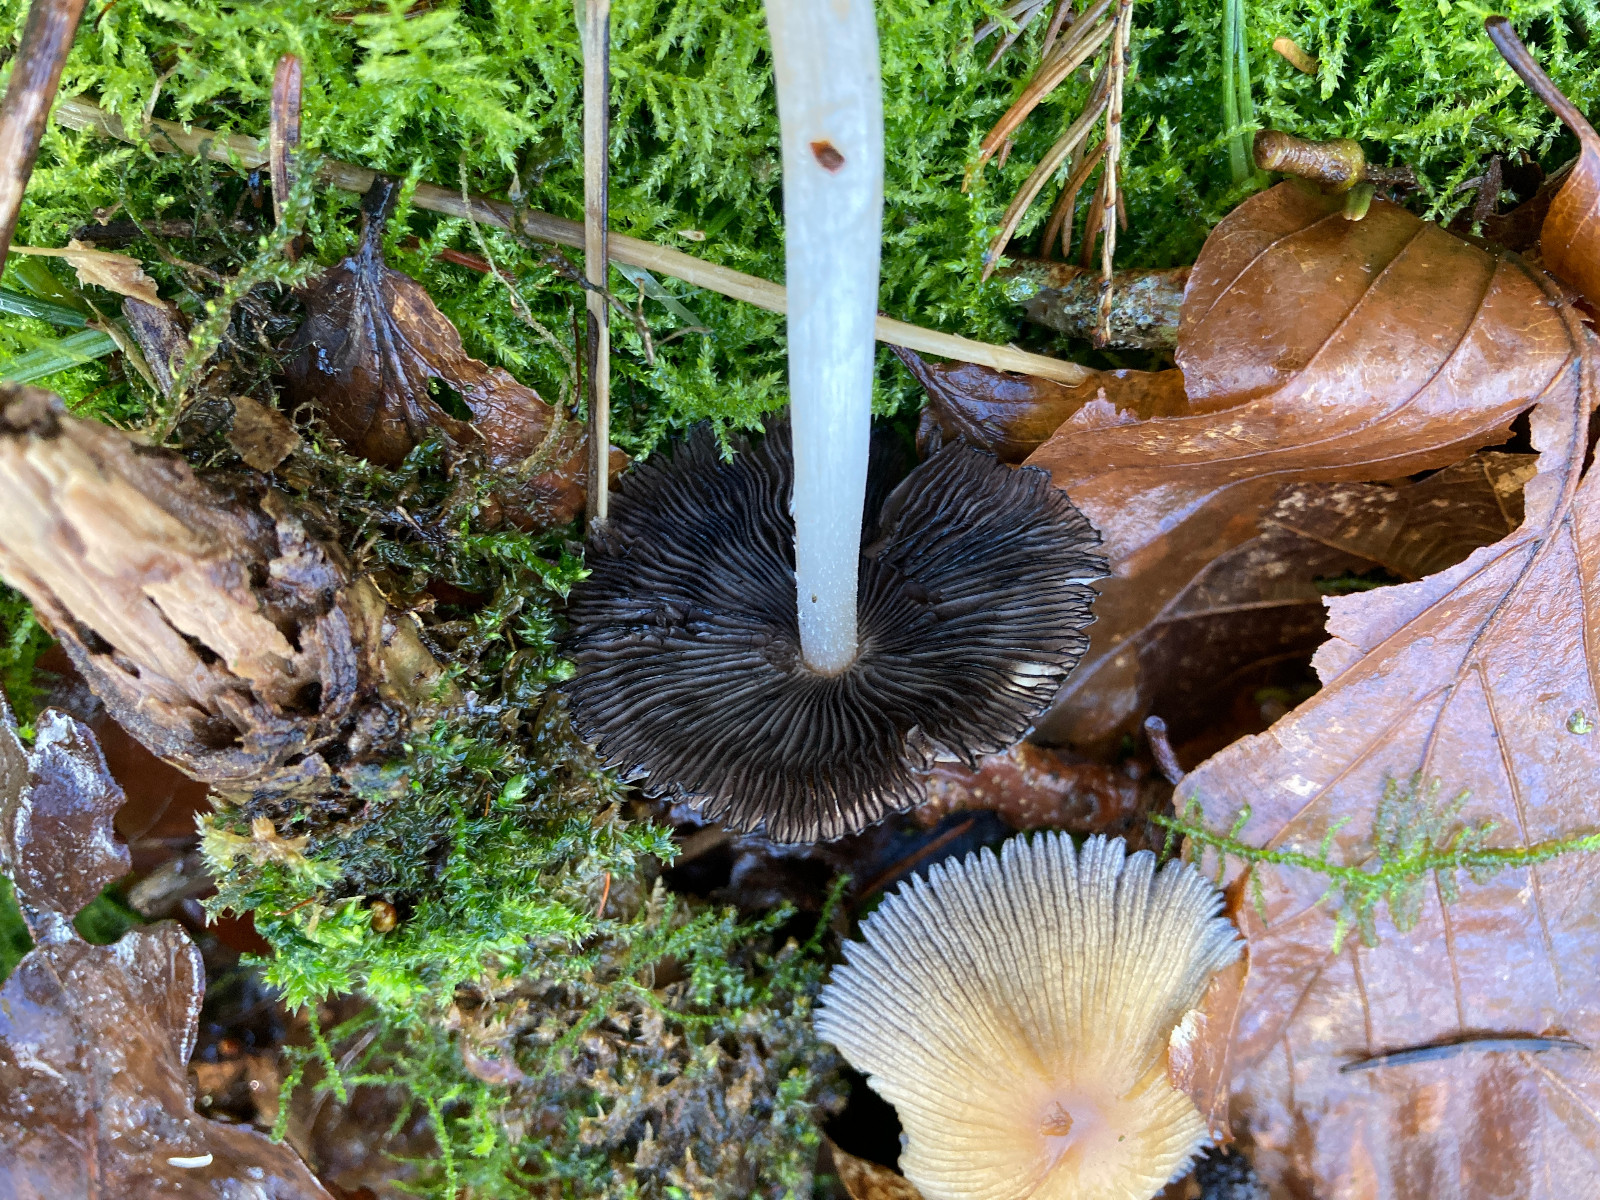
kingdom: Fungi
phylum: Basidiomycota
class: Agaricomycetes
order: Agaricales
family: Psathyrellaceae
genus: Coprinellus
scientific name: Coprinellus micaceus
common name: glimmer-blækhat
